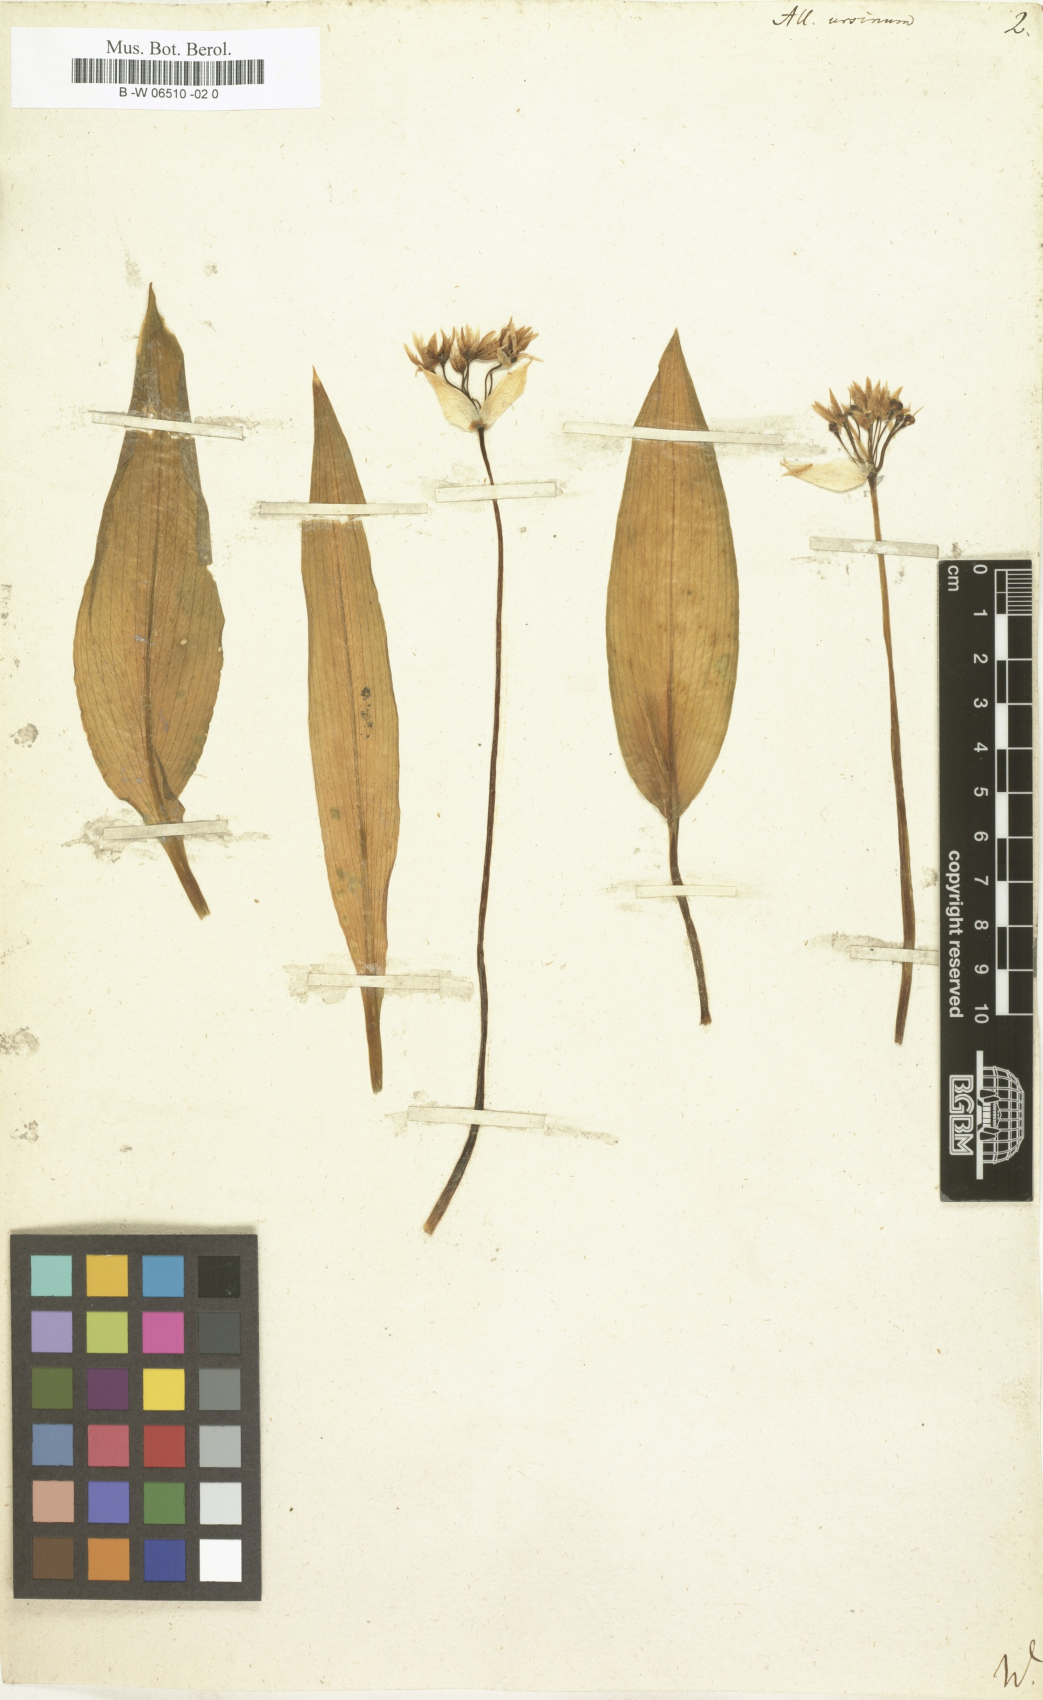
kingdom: Plantae
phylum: Tracheophyta
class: Liliopsida
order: Asparagales
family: Amaryllidaceae
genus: Allium
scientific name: Allium ursinum
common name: Ramsons
